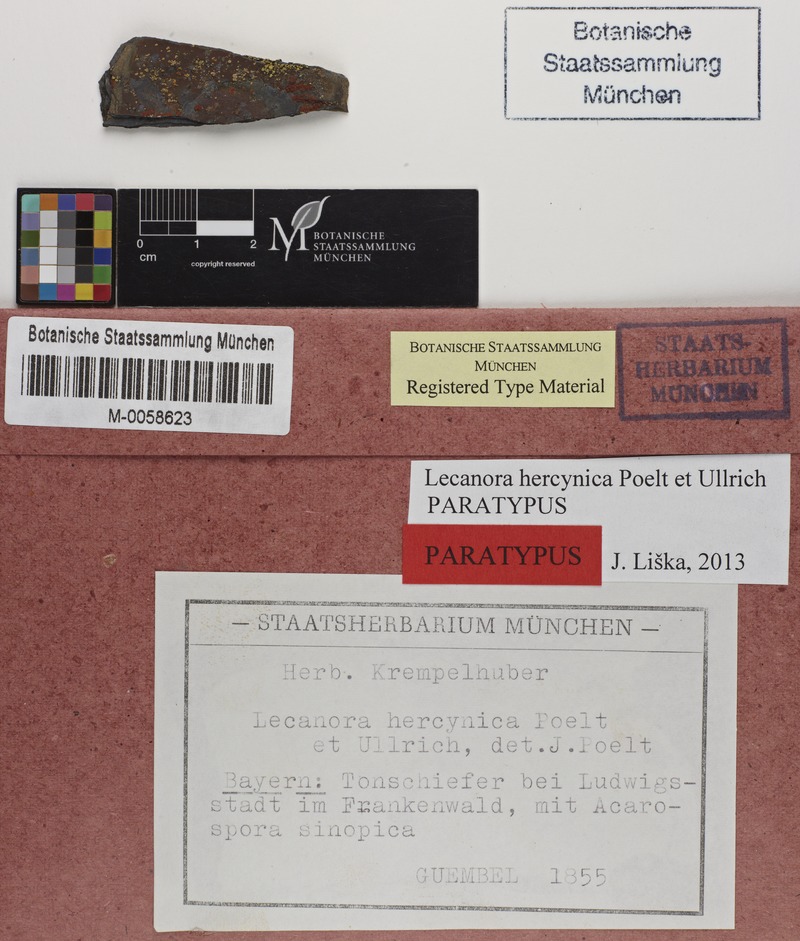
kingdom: Fungi
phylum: Ascomycota
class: Lecanoromycetes
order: Lecanorales
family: Lecanoraceae
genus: Lecanora
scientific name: Lecanora subaurea
